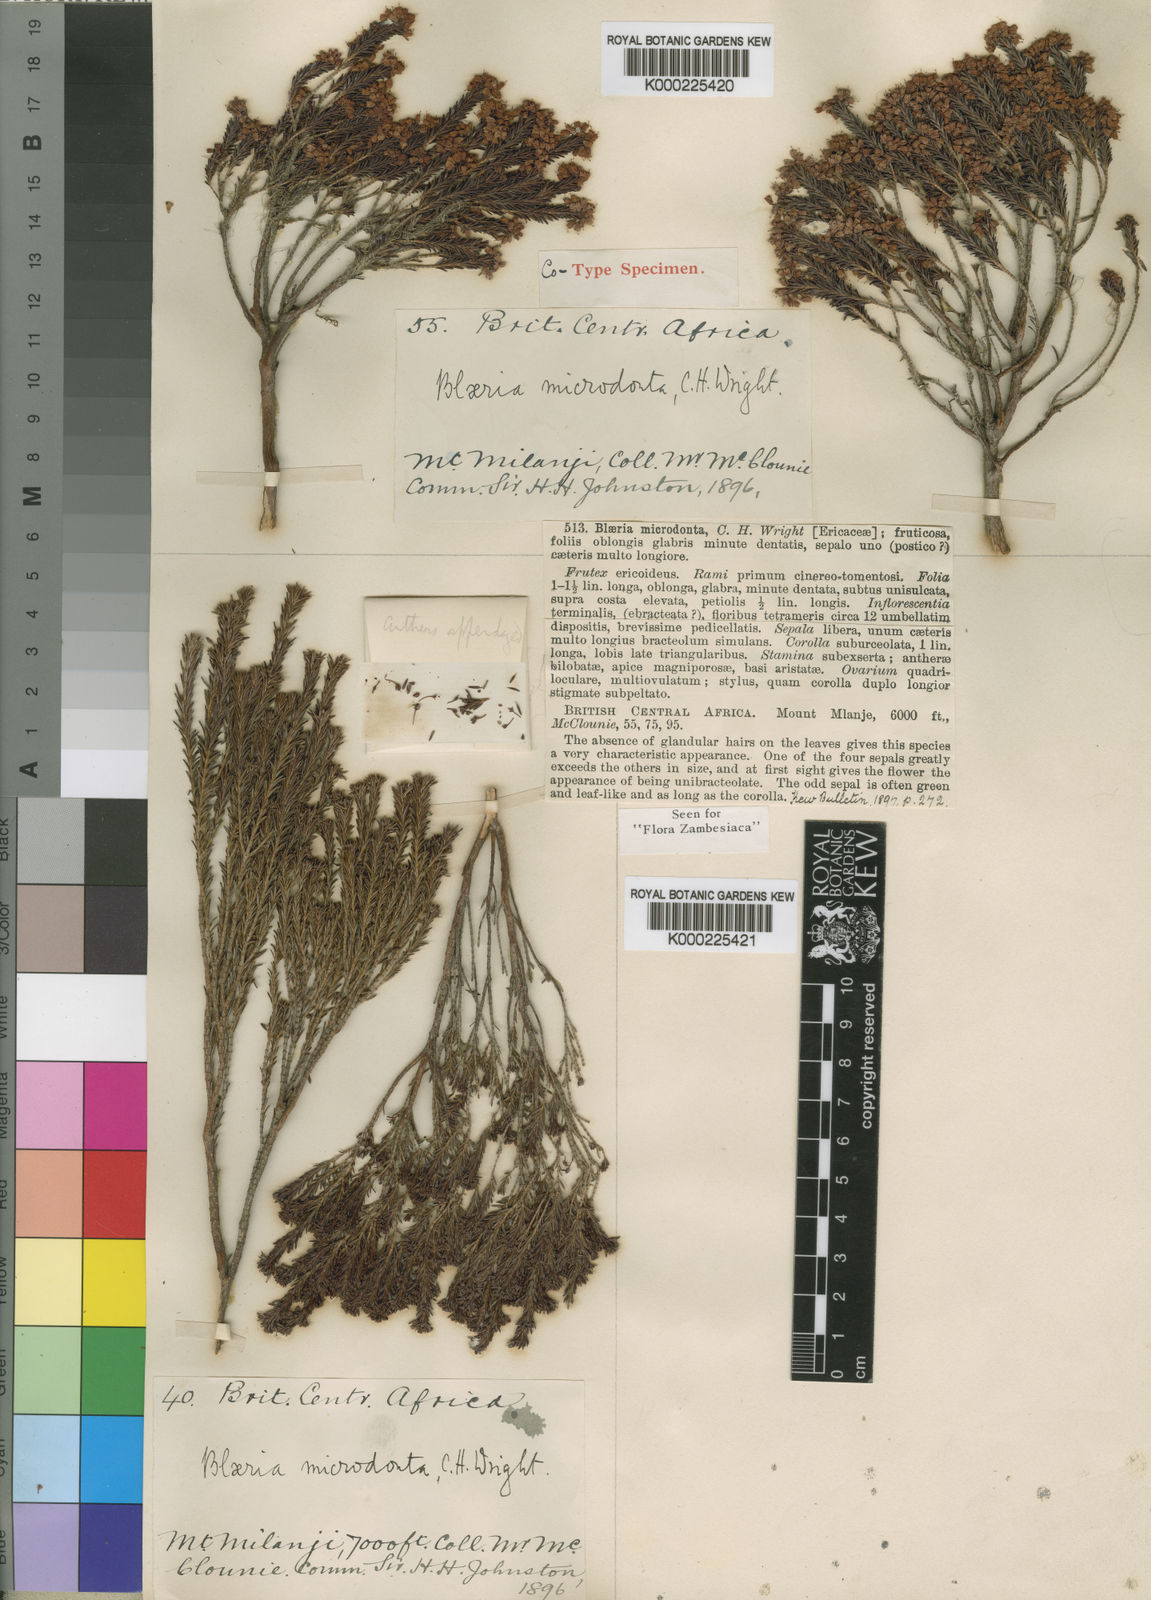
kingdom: Plantae
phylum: Tracheophyta
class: Magnoliopsida
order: Ericales
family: Ericaceae
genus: Erica
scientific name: Erica microdonta
